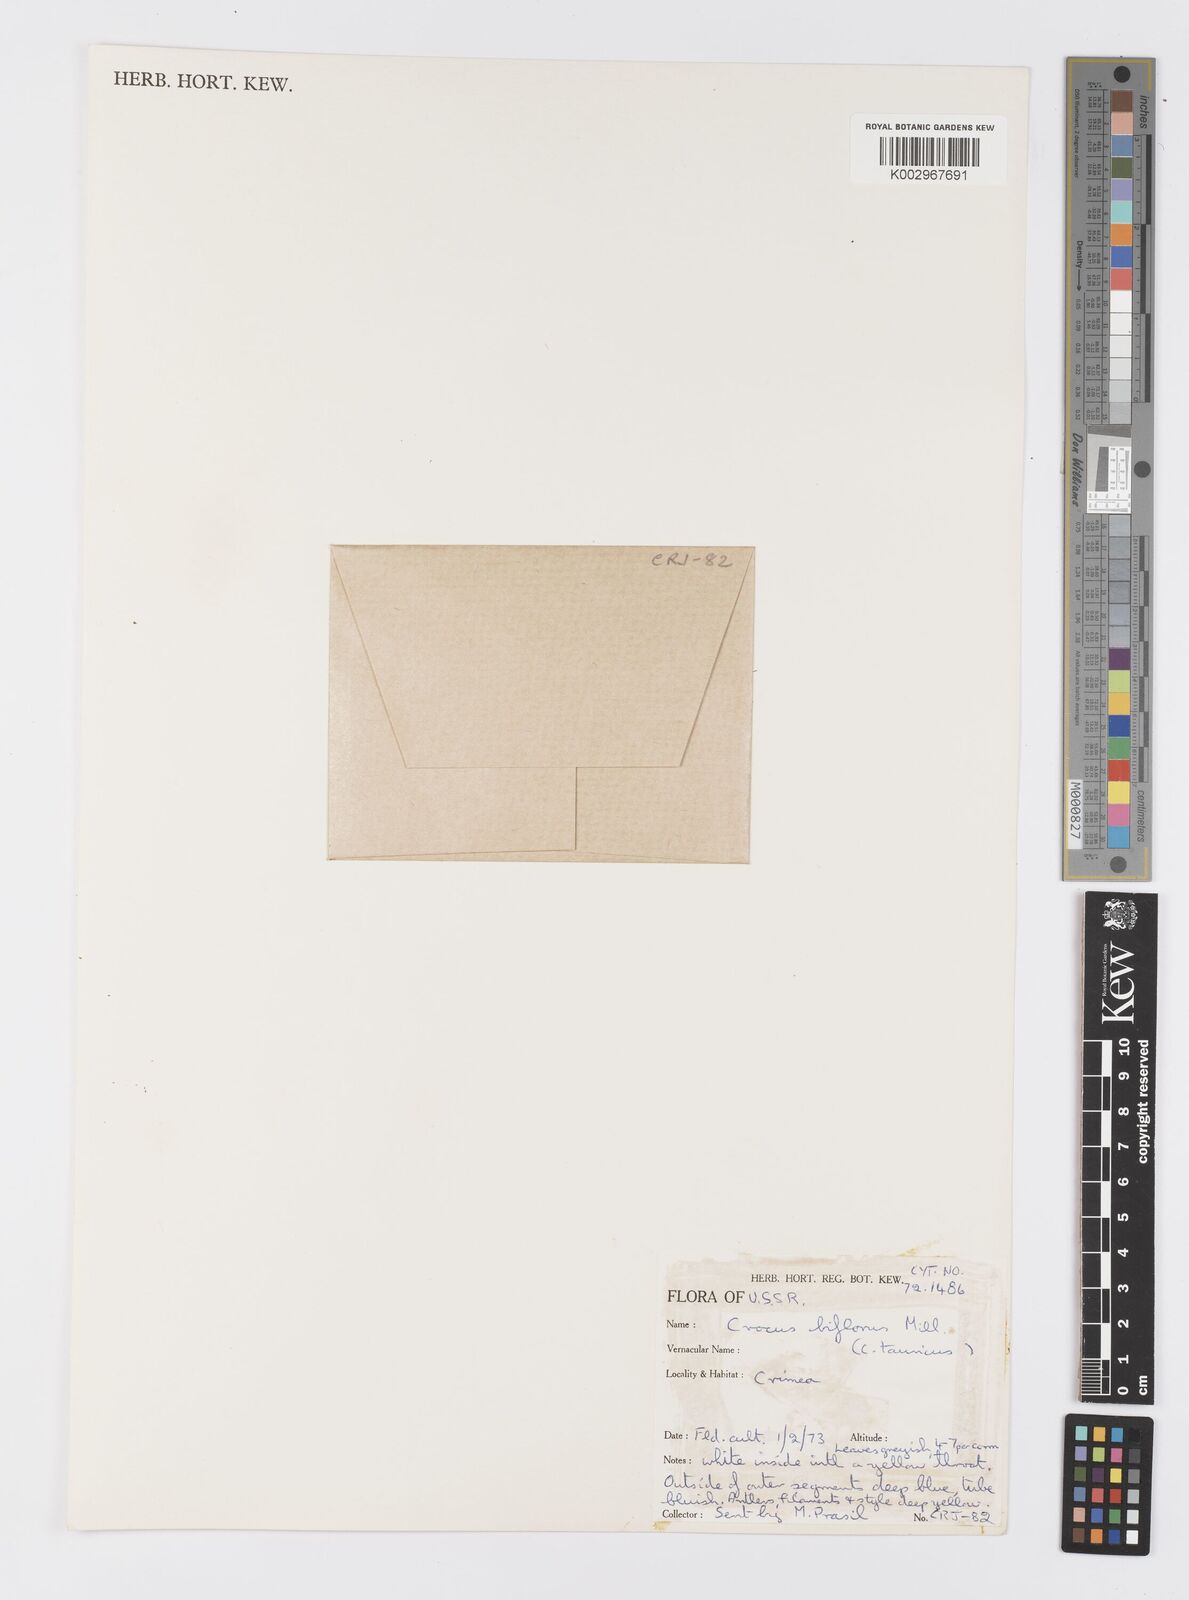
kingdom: Plantae
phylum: Tracheophyta
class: Liliopsida
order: Asparagales
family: Iridaceae
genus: Crocus
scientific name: Crocus biflorus
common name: Silvery crocus
